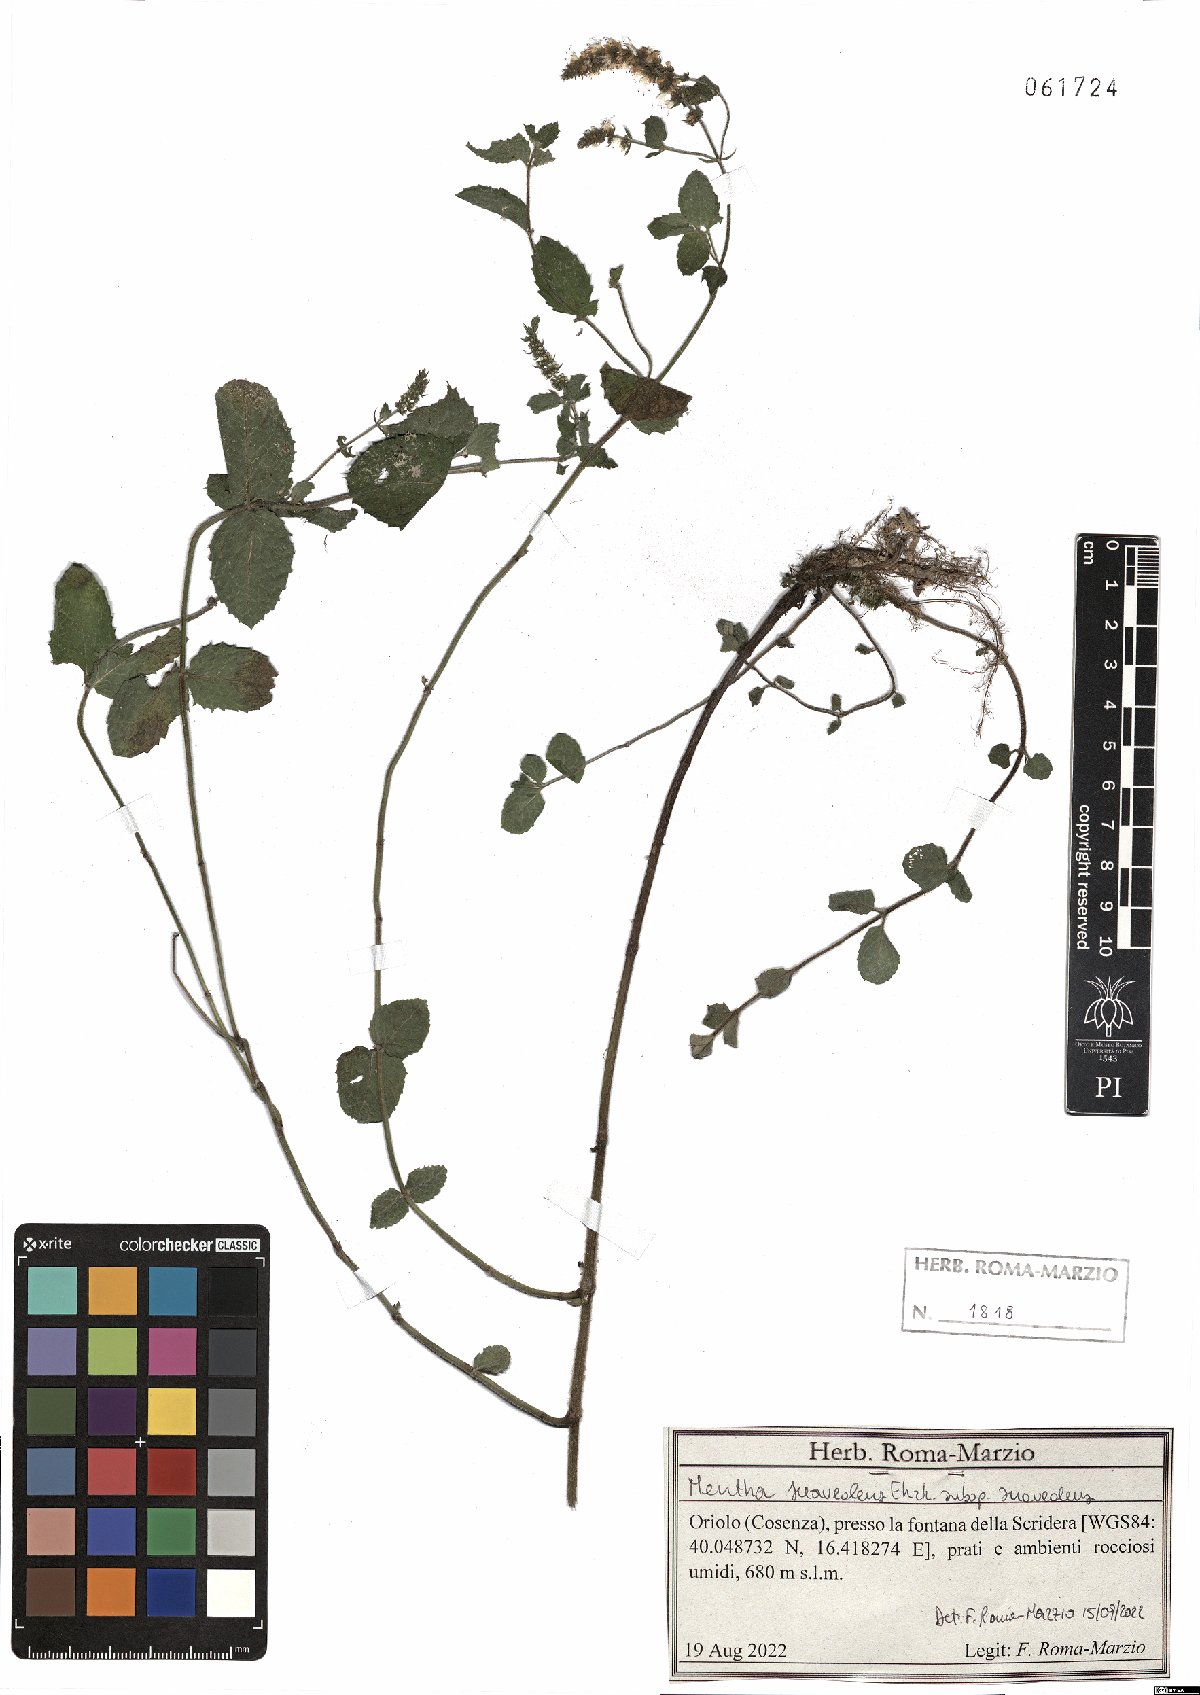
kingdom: Plantae
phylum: Tracheophyta
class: Magnoliopsida
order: Lamiales
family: Lamiaceae
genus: Mentha
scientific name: Mentha suaveolens
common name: Apple mint
